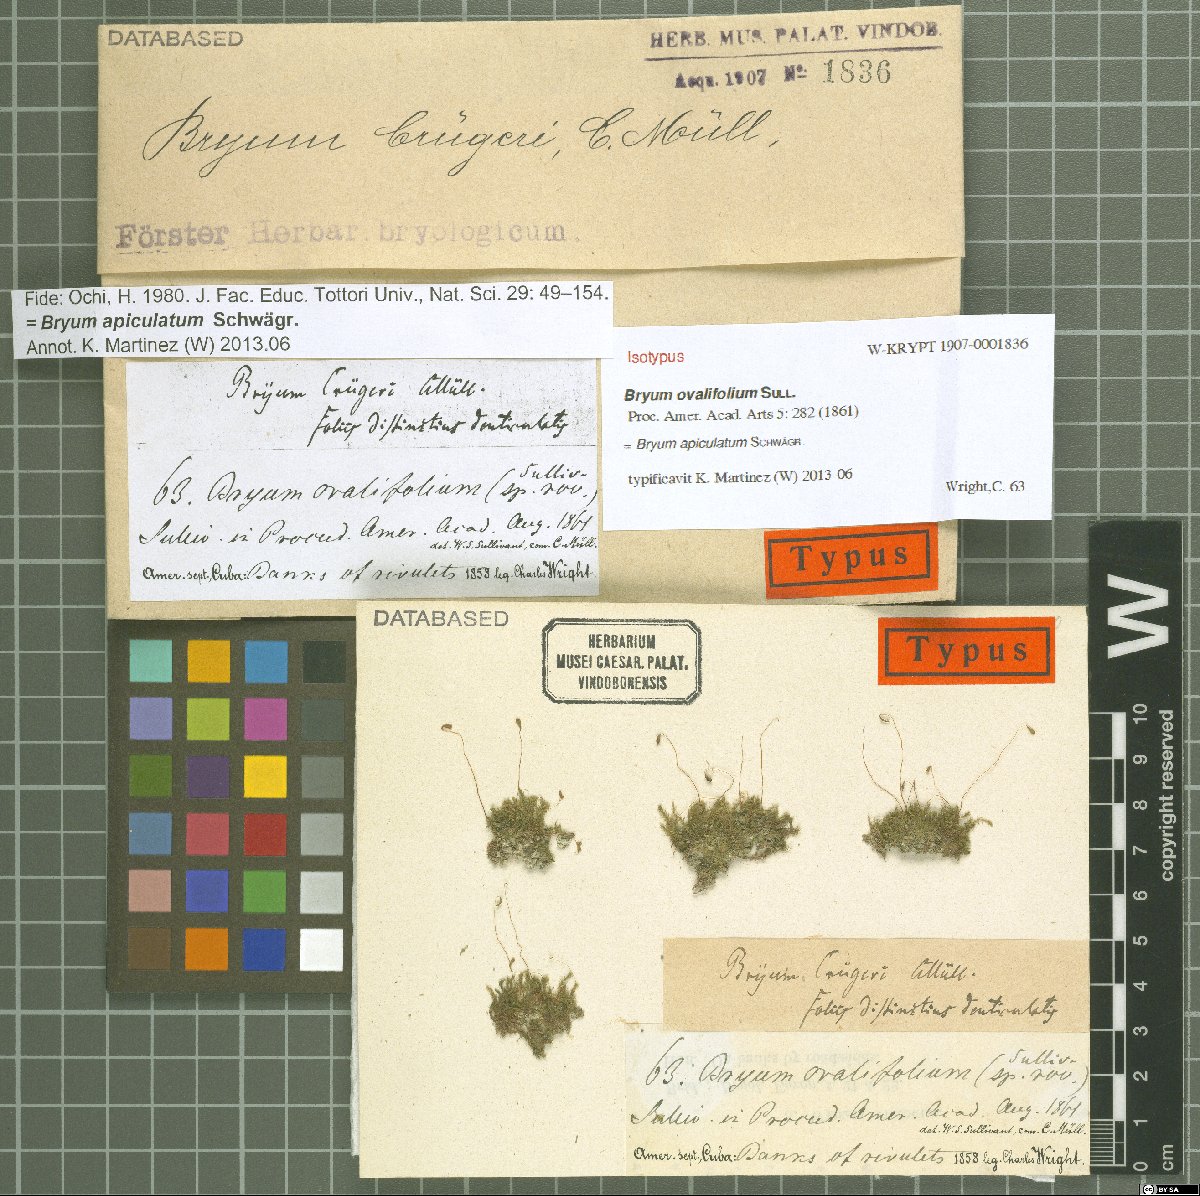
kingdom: Plantae
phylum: Bryophyta
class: Bryopsida
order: Bryales
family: Bryaceae
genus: Gemmabryum
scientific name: Gemmabryum apiculatum
